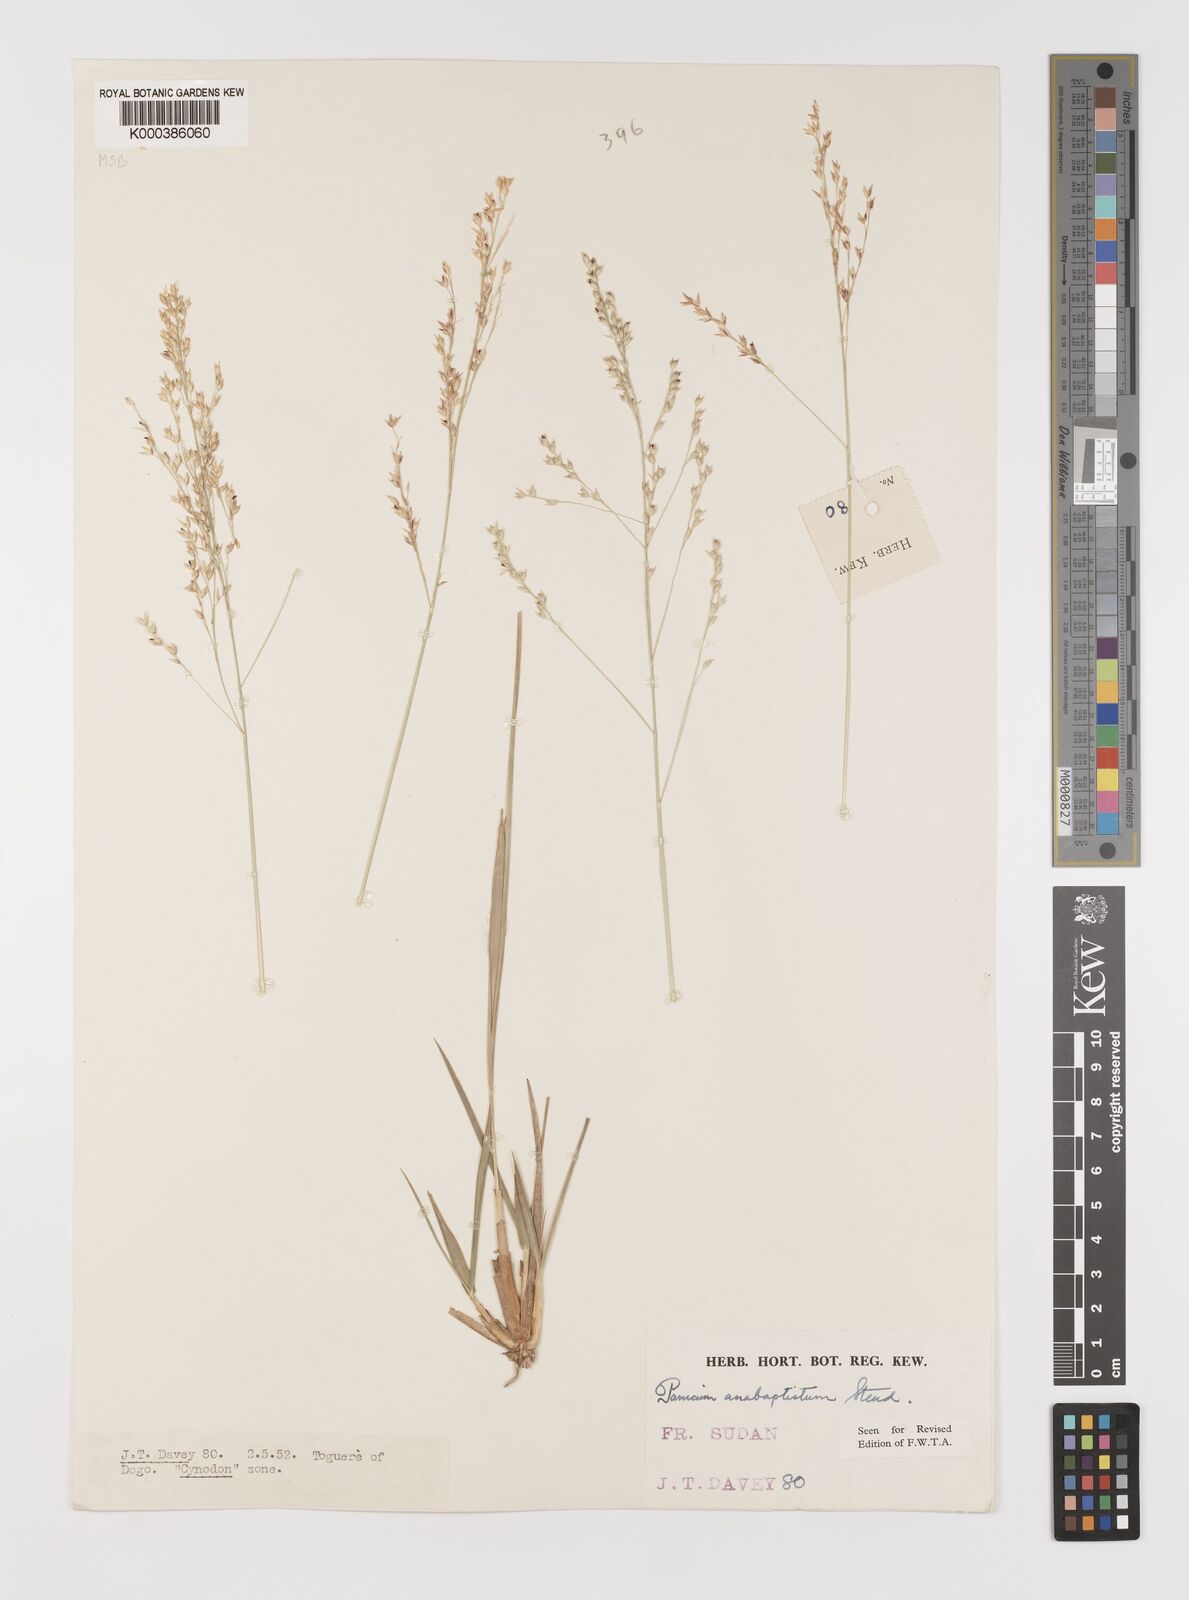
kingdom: Plantae
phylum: Tracheophyta
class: Liliopsida
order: Poales
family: Poaceae
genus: Panicum
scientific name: Panicum anabaptistum
